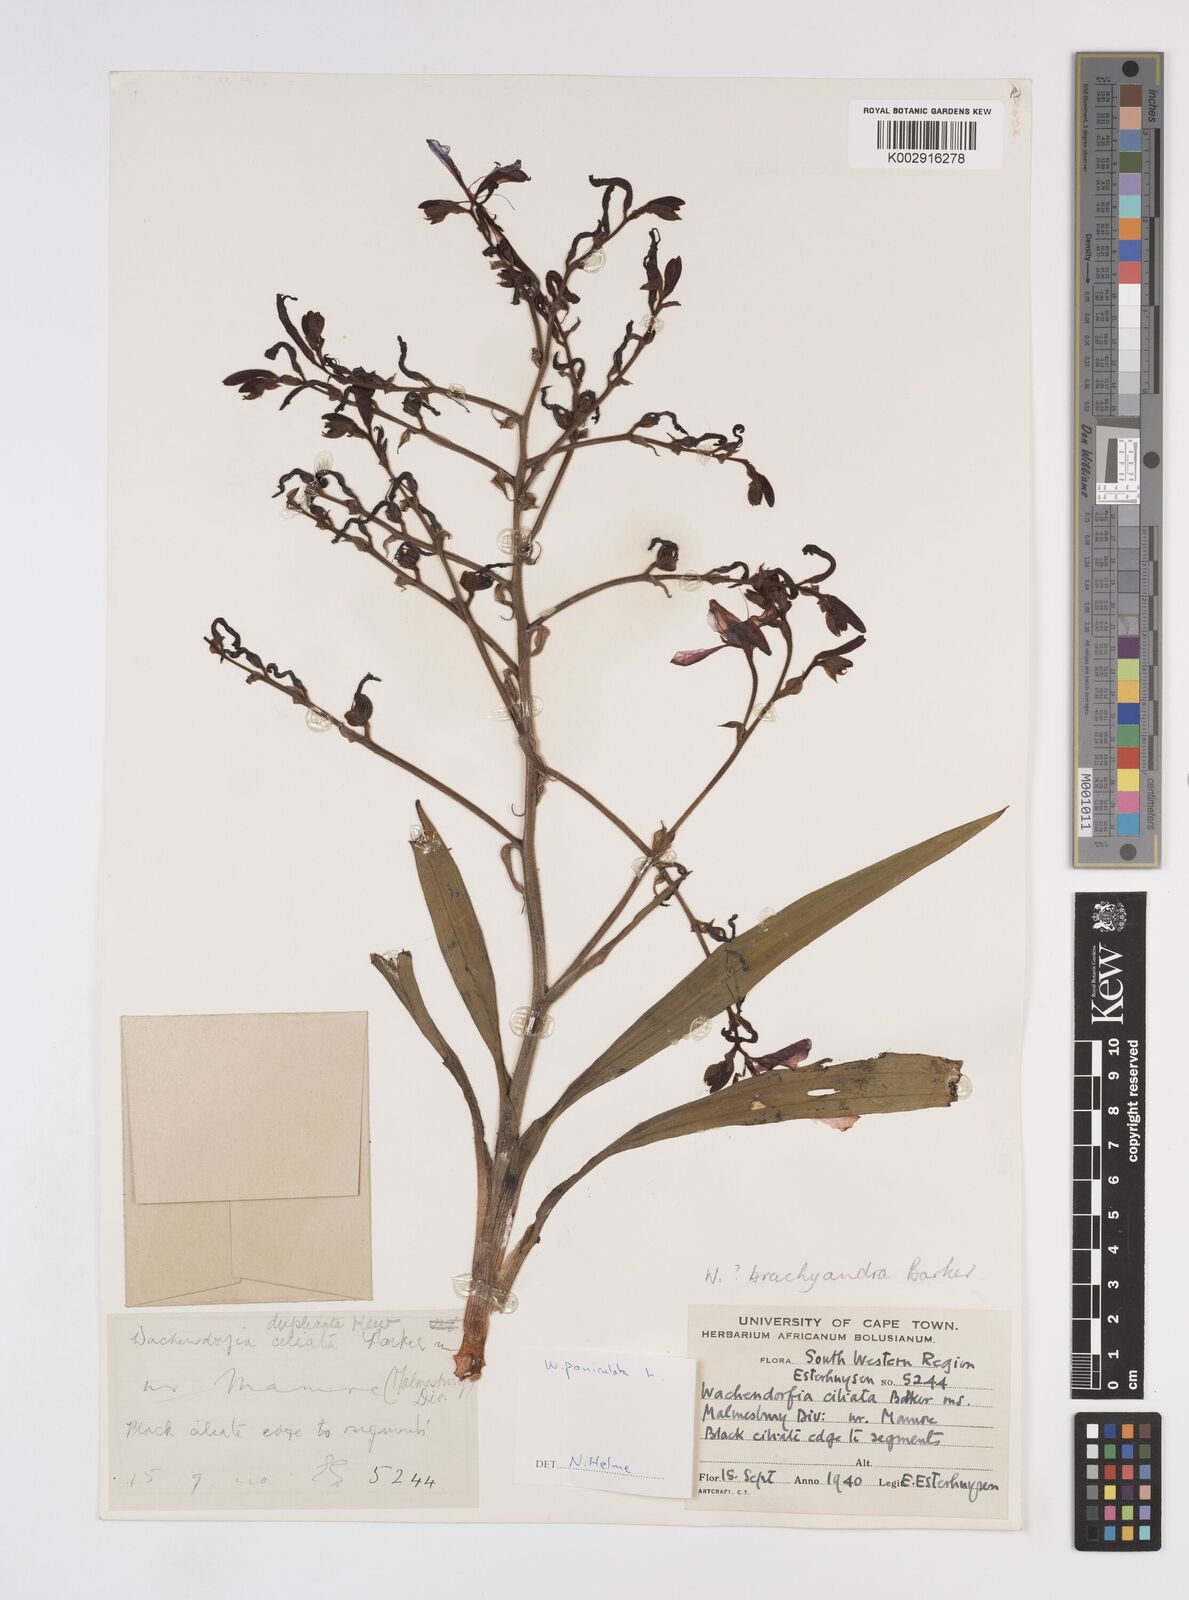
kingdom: Plantae
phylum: Tracheophyta
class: Liliopsida
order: Commelinales
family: Haemodoraceae
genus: Wachendorfia
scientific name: Wachendorfia paniculata
